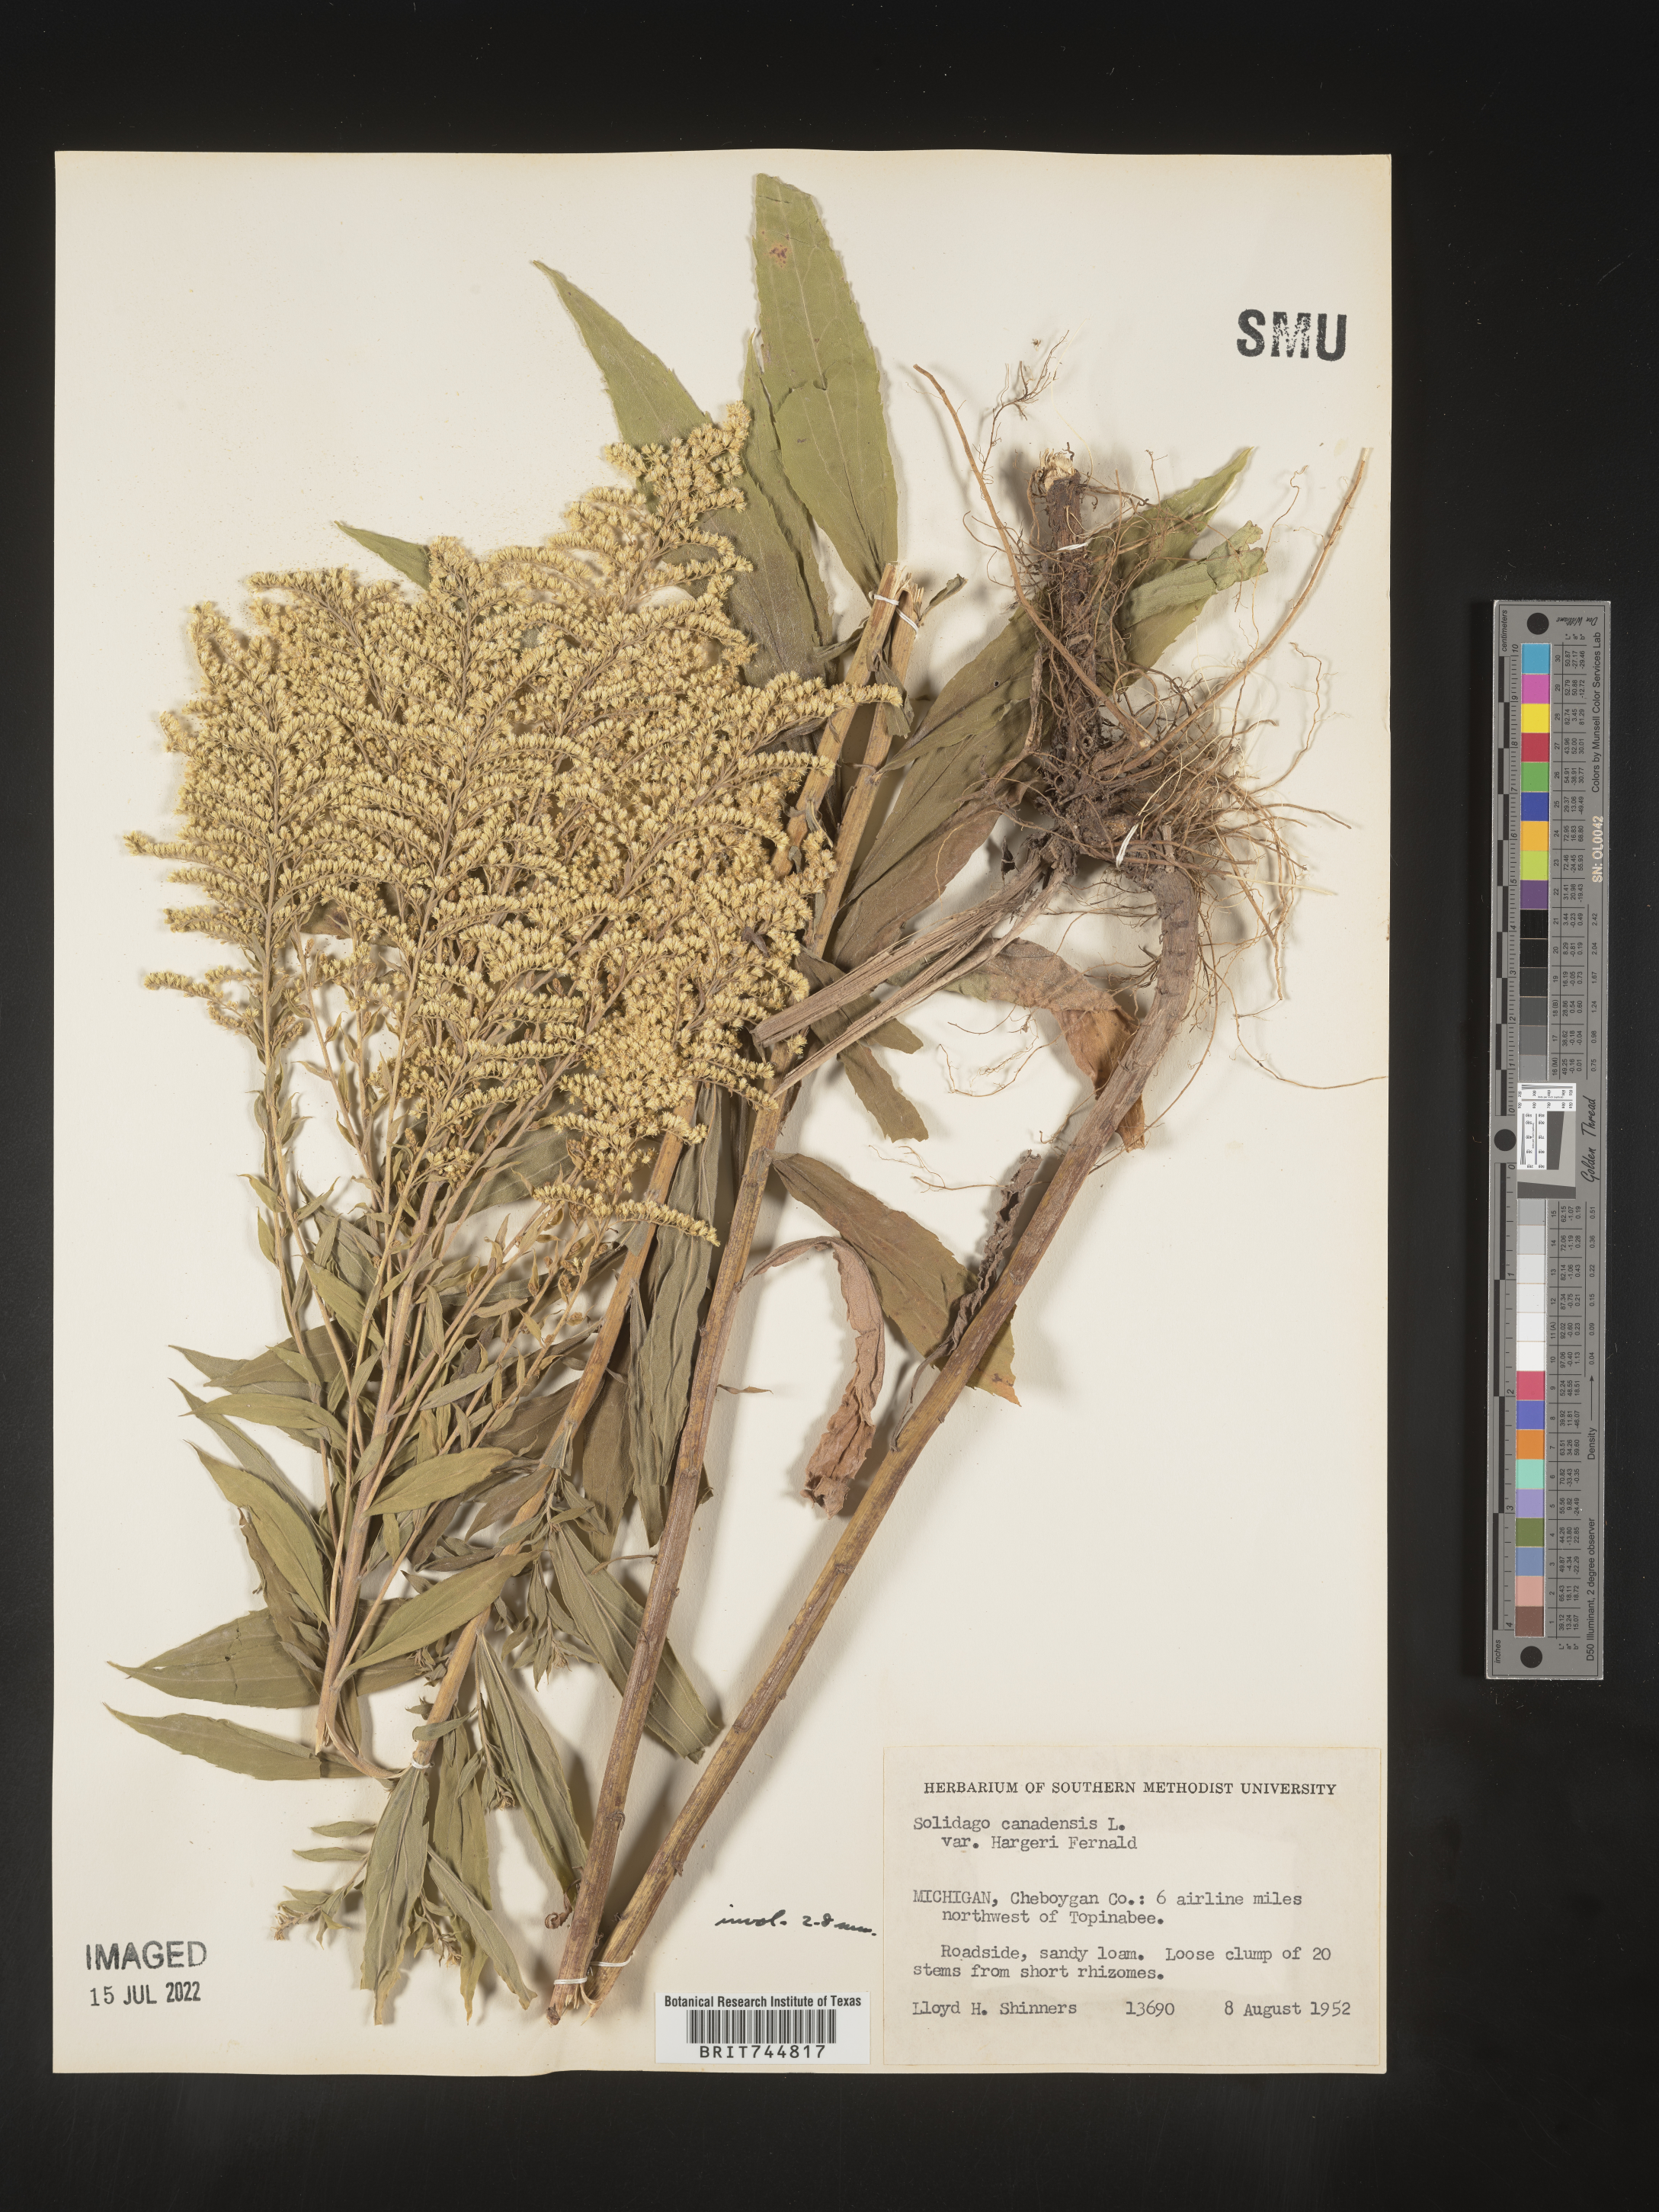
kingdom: Plantae
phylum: Tracheophyta
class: Magnoliopsida
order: Asterales
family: Asteraceae
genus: Solidago
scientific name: Solidago canadensis
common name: Canada goldenrod
